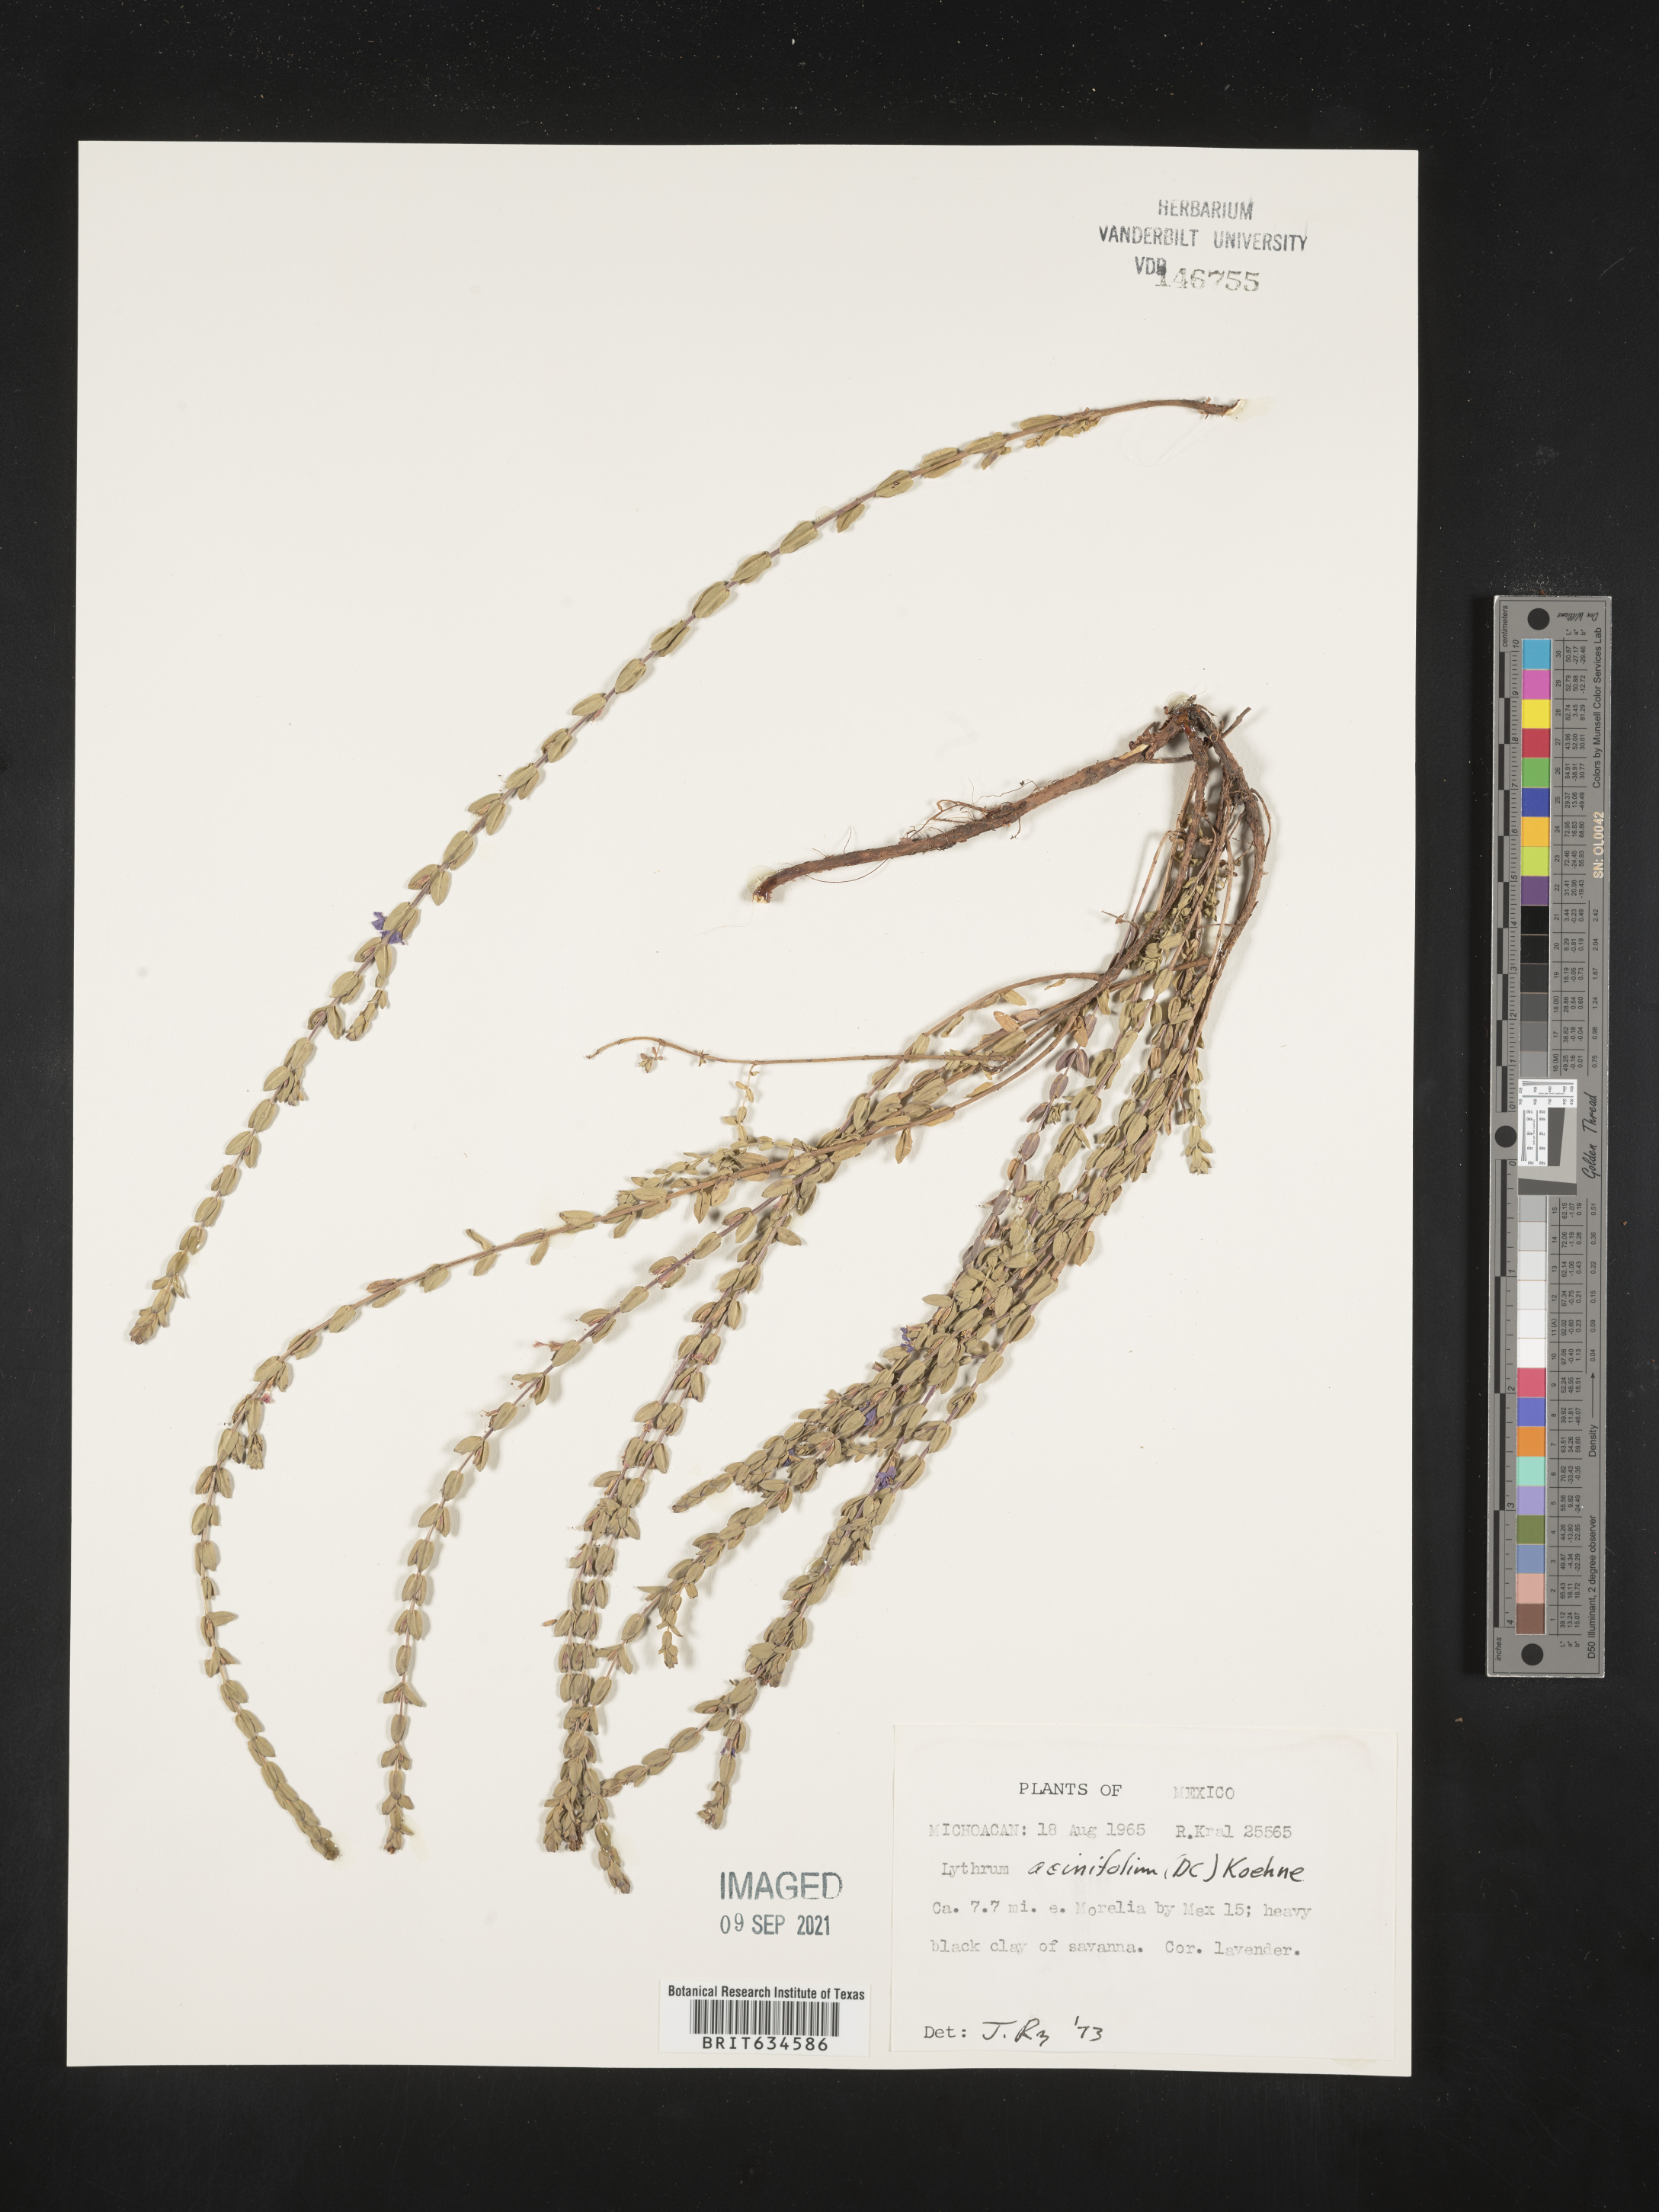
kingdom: Plantae
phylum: Tracheophyta
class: Magnoliopsida
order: Myrtales
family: Lythraceae
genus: Lythrum
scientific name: Lythrum
